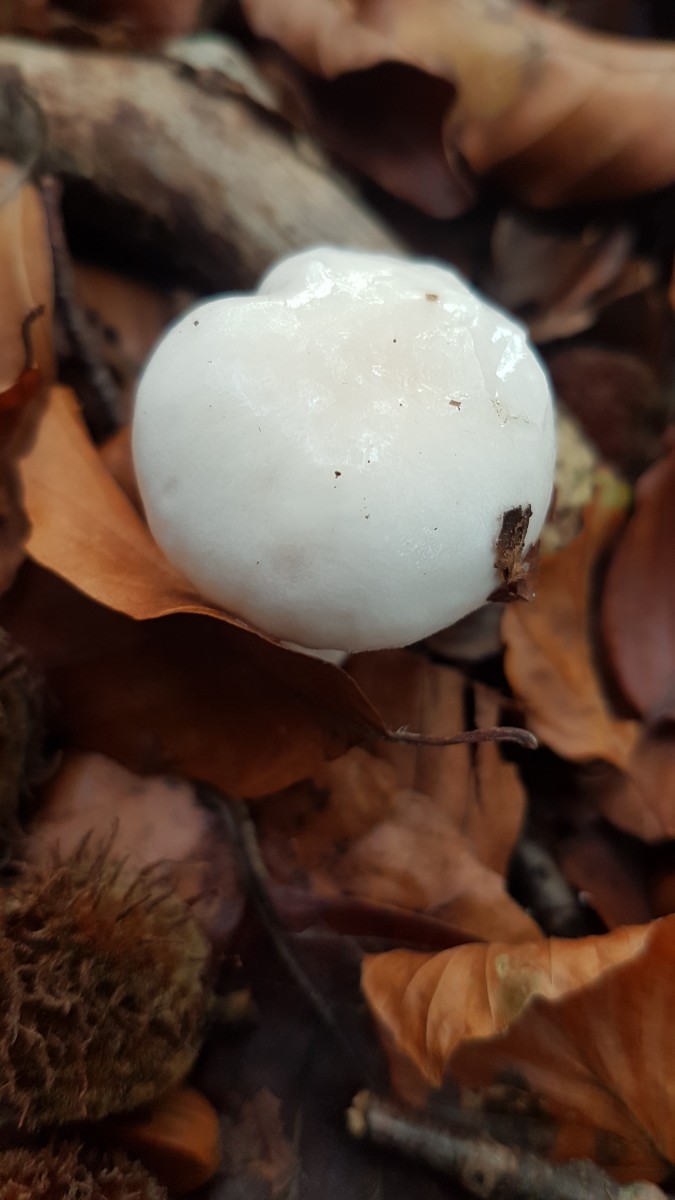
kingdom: Fungi
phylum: Basidiomycota
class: Agaricomycetes
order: Agaricales
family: Hygrophoraceae
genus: Hygrophorus
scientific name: Hygrophorus
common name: sneglehat
